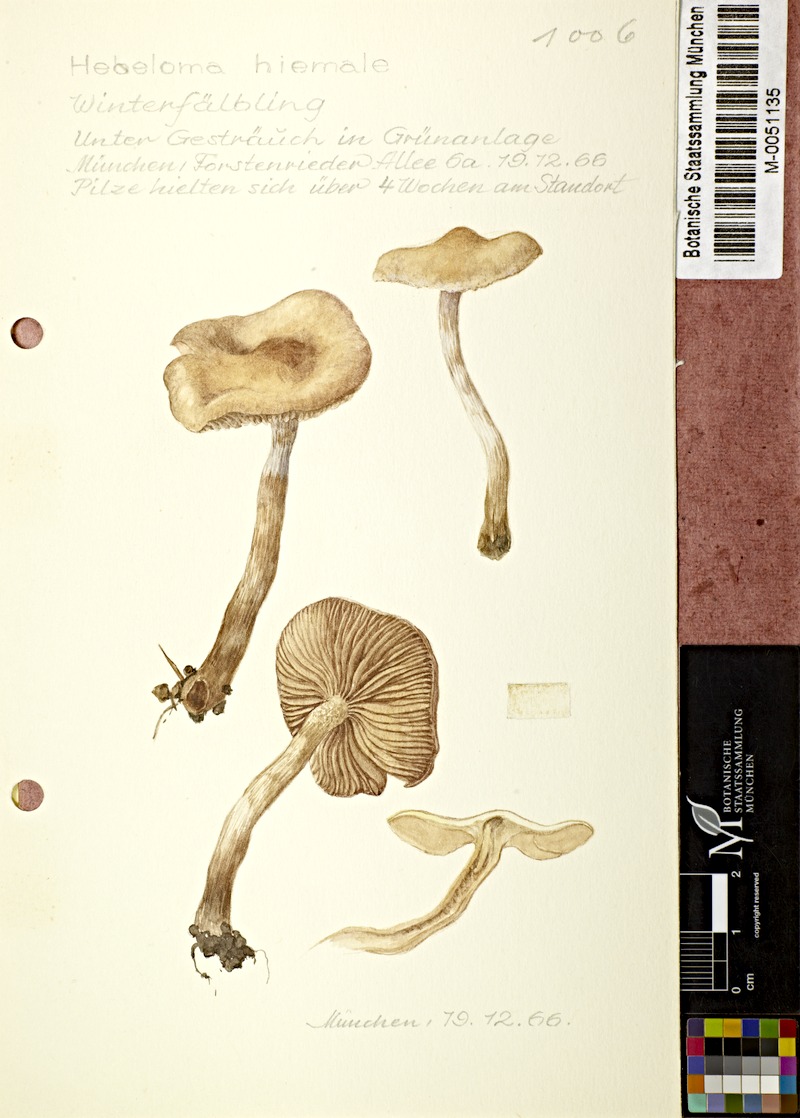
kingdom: Fungi
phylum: Basidiomycota
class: Agaricomycetes
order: Agaricales
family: Hymenogastraceae
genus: Hebeloma
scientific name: Hebeloma hiemale
